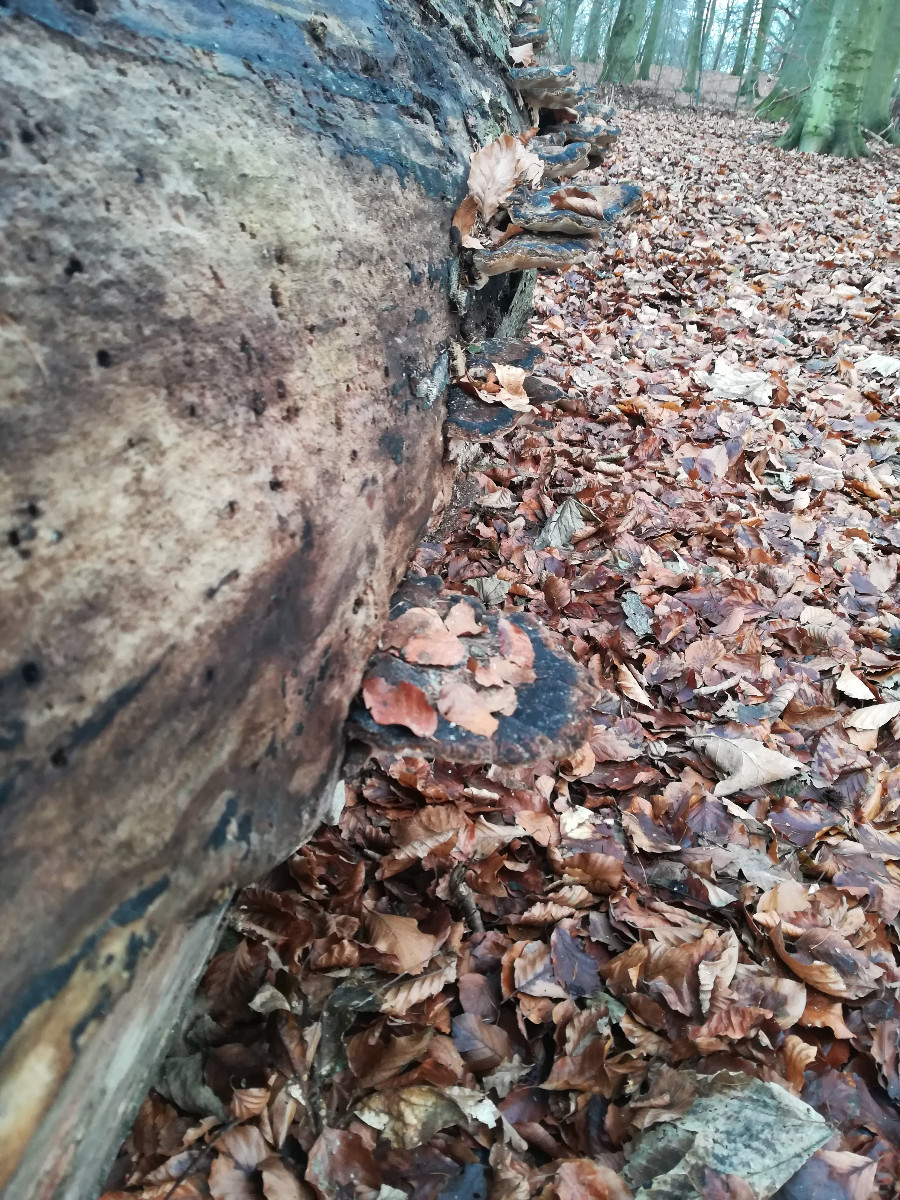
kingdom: Fungi
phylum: Basidiomycota
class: Agaricomycetes
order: Polyporales
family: Ischnodermataceae
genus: Ischnoderma
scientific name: Ischnoderma resinosum
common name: løv-tjæreporesvamp
